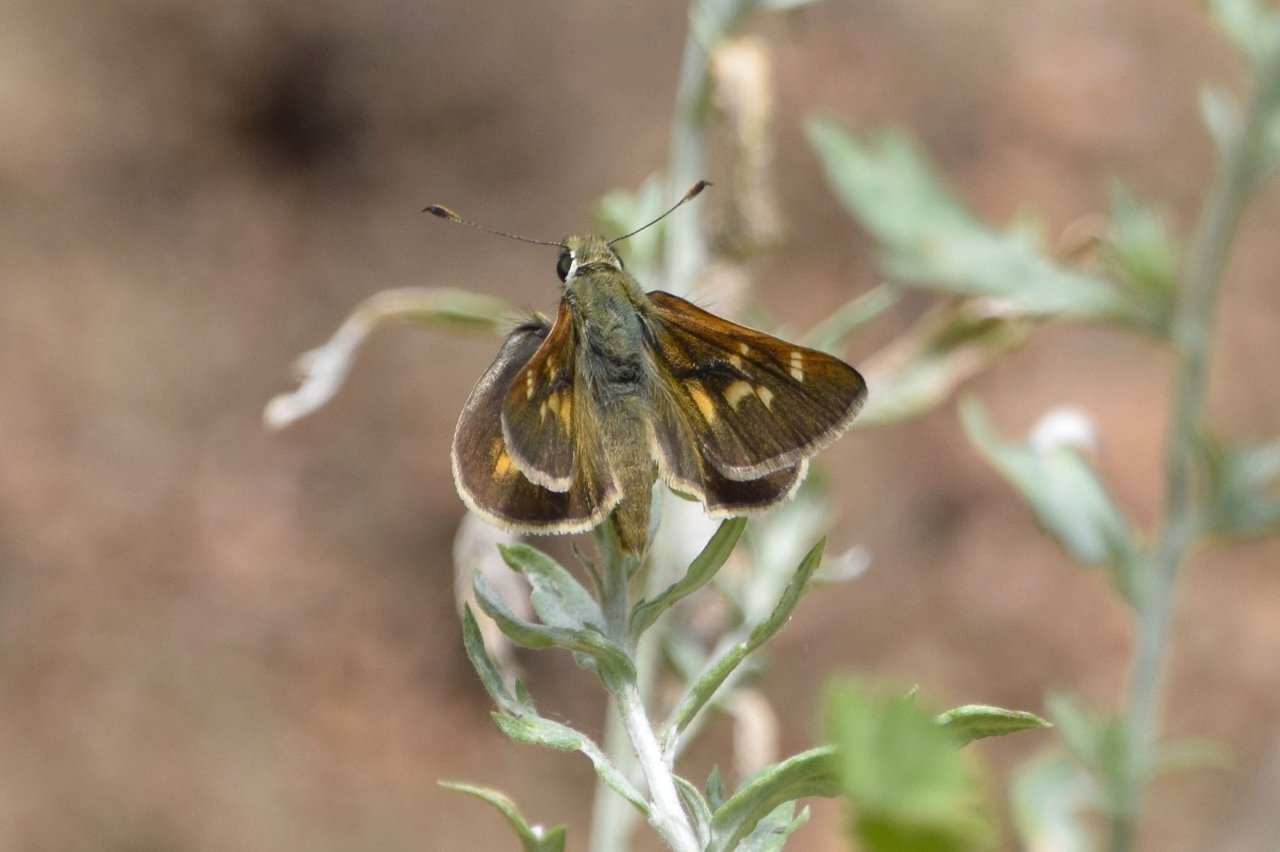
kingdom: Animalia
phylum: Arthropoda
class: Insecta
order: Lepidoptera
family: Hesperiidae
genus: Ochlodes
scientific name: Ochlodes snowi
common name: Snow's Skipper
